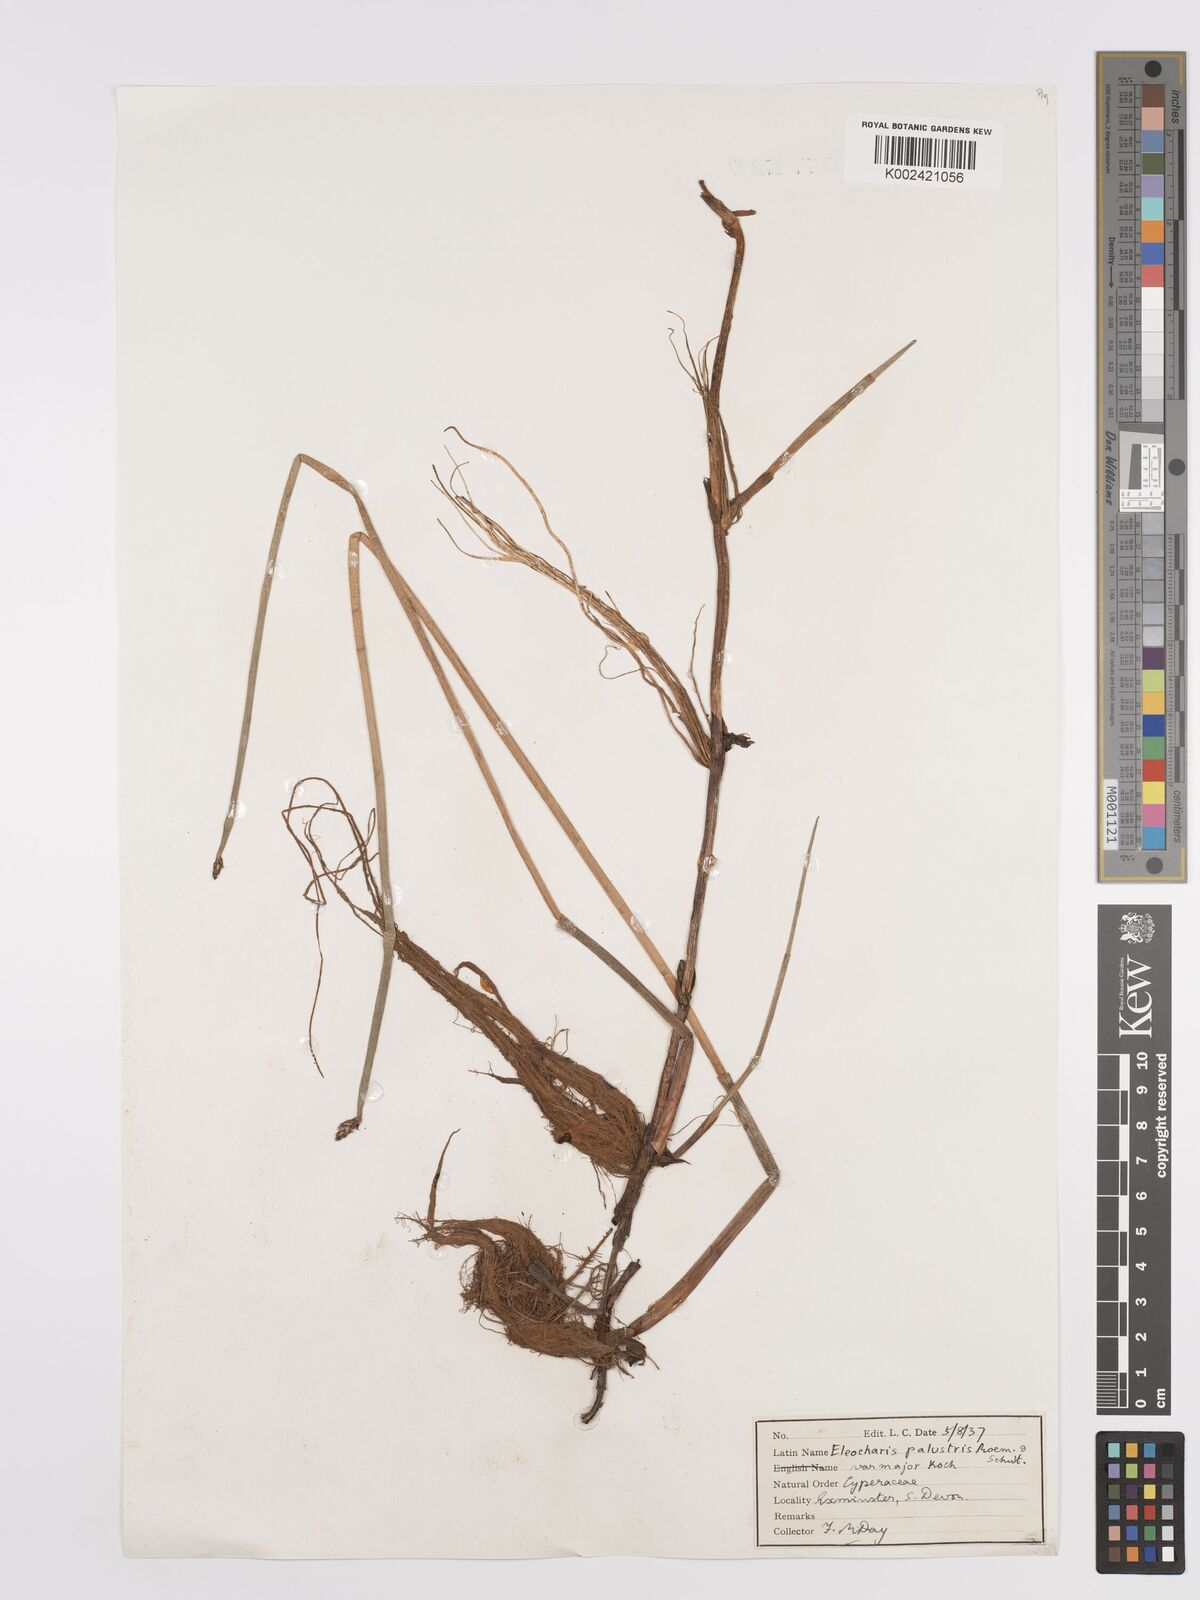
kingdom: Plantae
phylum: Tracheophyta
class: Liliopsida
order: Poales
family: Cyperaceae
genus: Eleocharis
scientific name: Eleocharis palustris
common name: Common spike-rush
